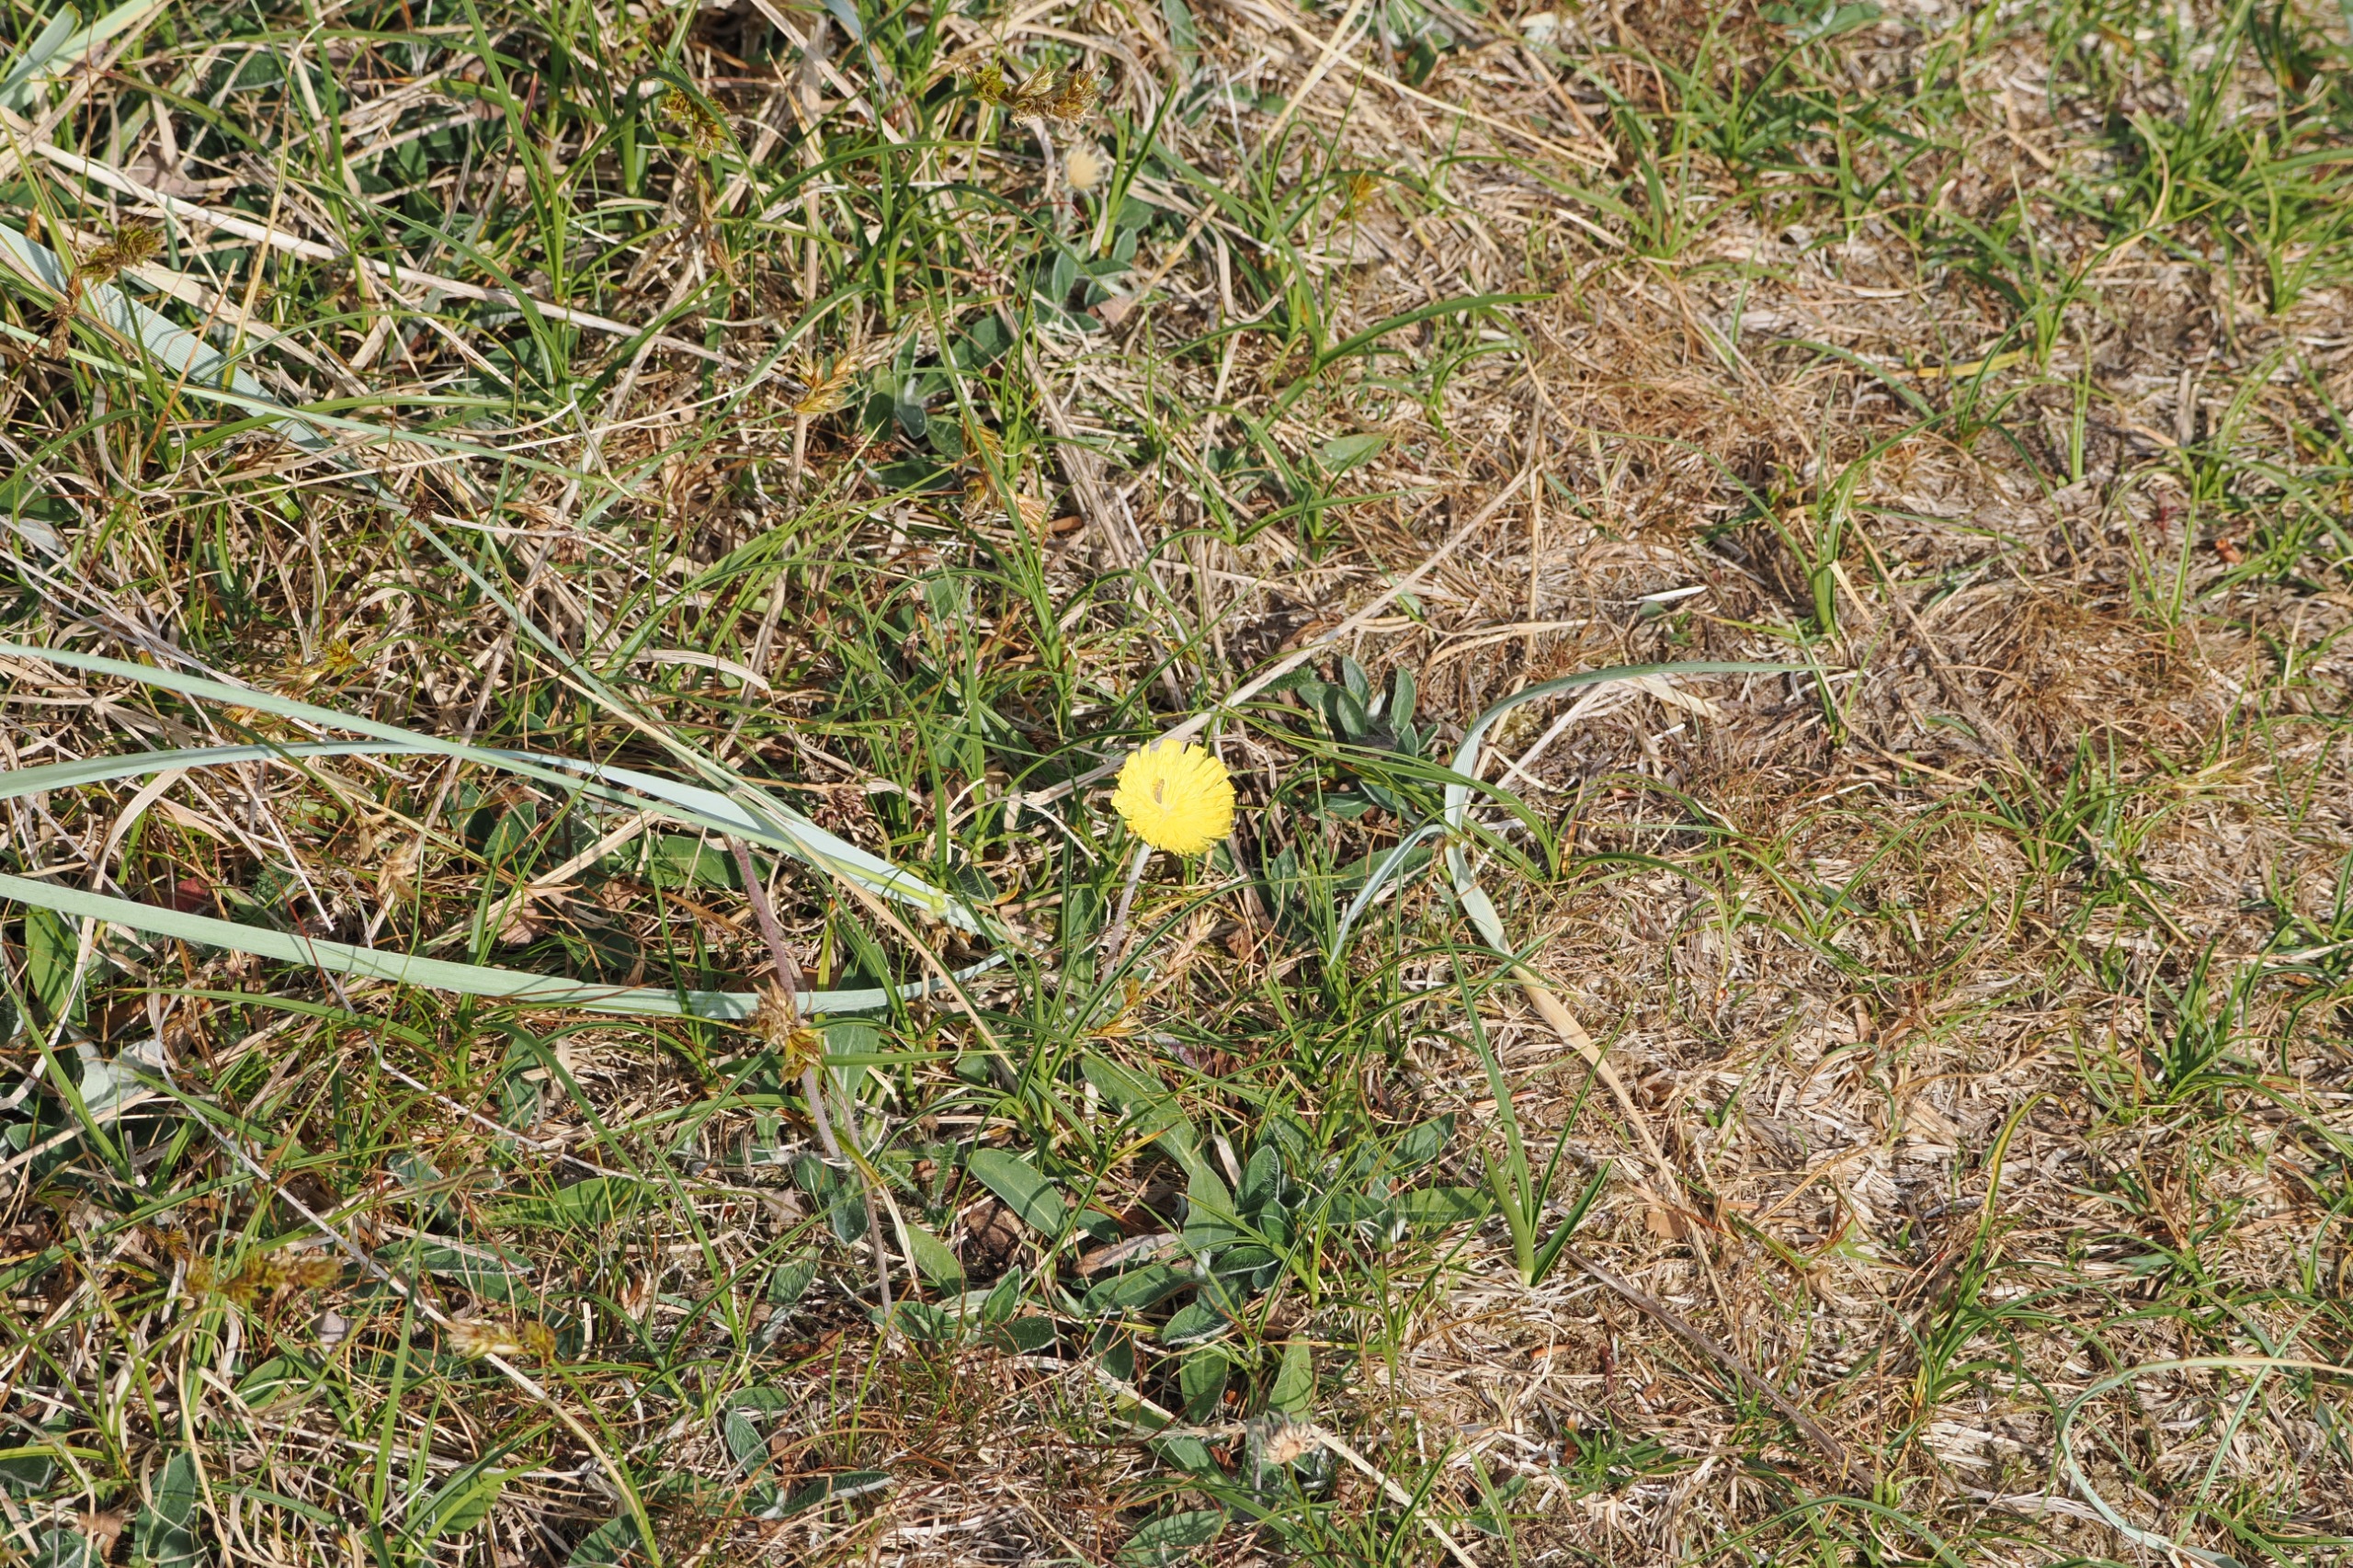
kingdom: Plantae
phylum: Tracheophyta
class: Magnoliopsida
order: Asterales
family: Asteraceae
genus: Pilosella
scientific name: Pilosella officinarum
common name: Håret høgeurt
